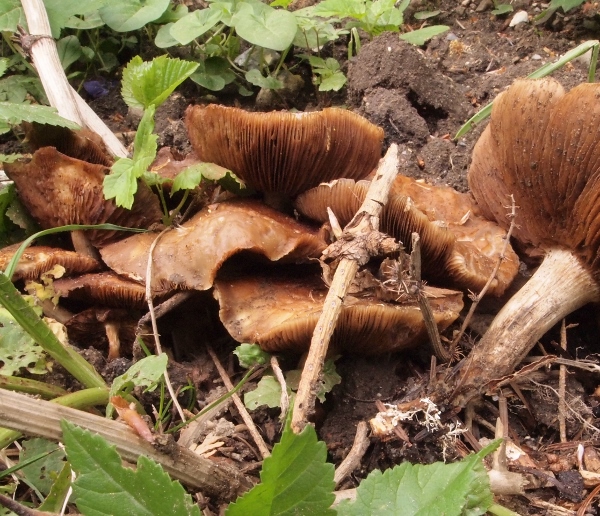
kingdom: Fungi
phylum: Basidiomycota
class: Agaricomycetes
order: Agaricales
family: Strophariaceae
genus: Agrocybe
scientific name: Agrocybe praecox
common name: tidlig agerhat
